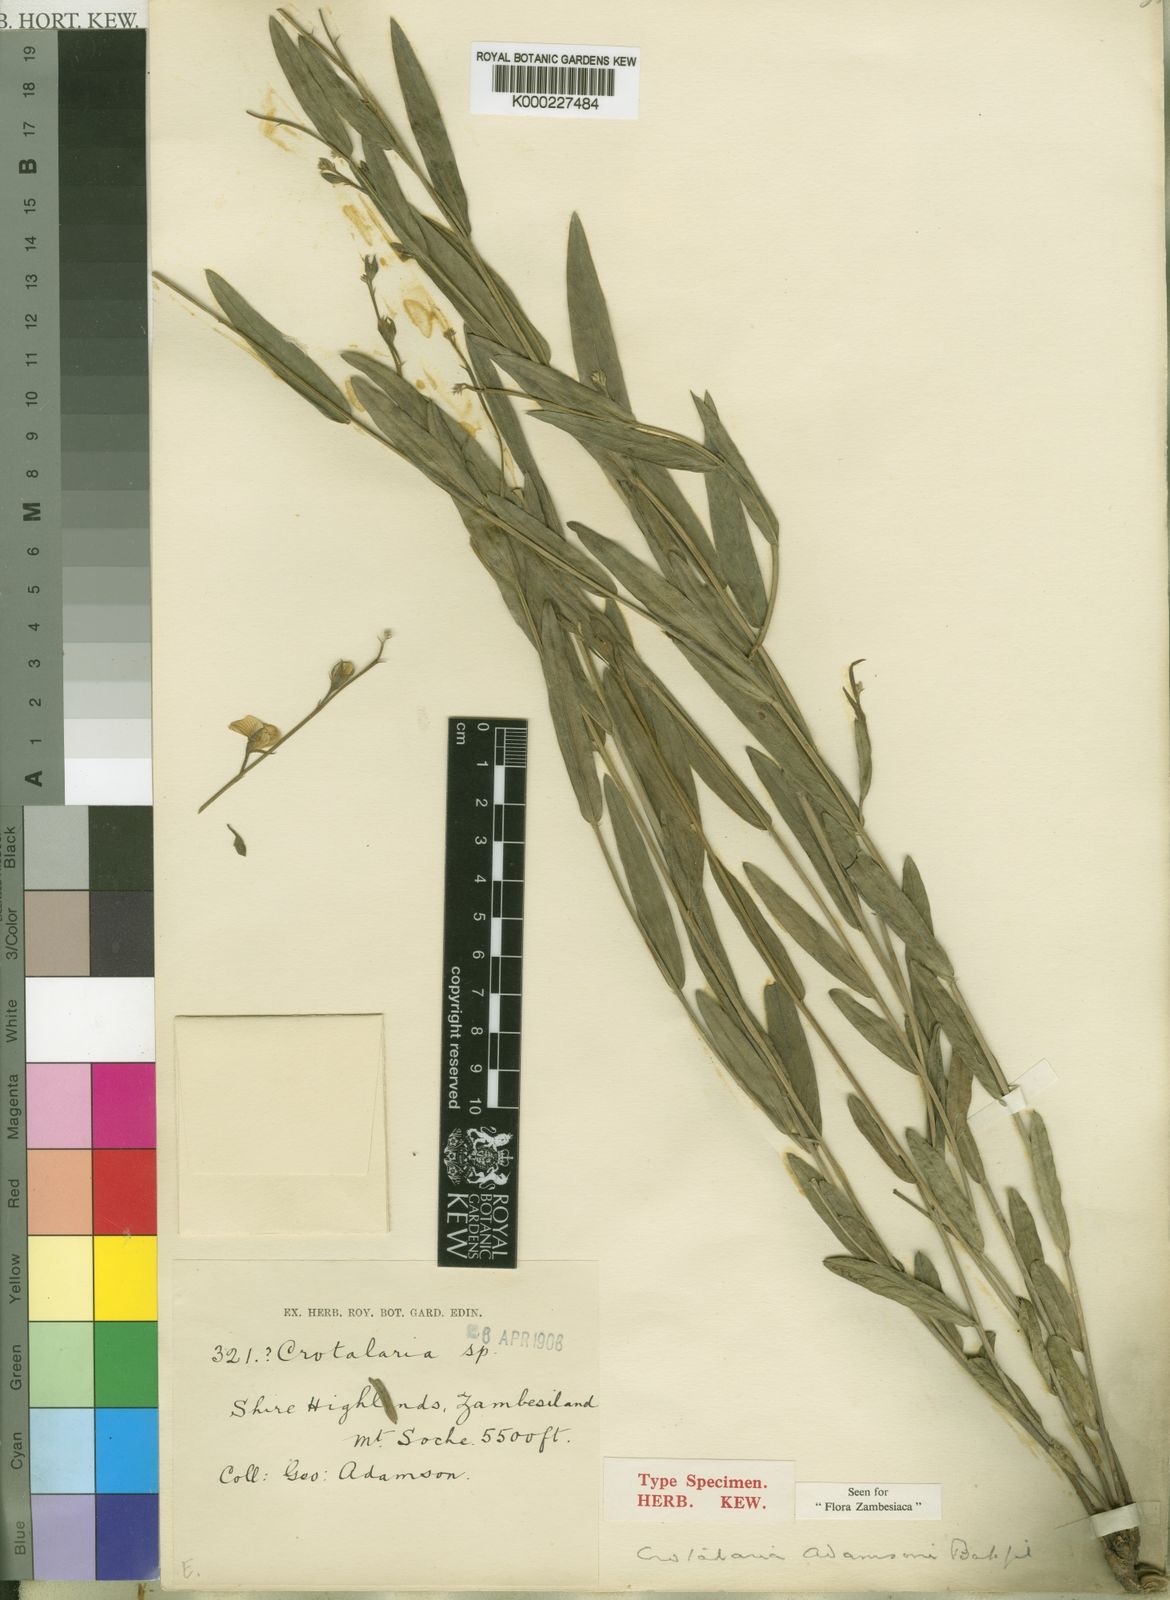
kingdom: Plantae
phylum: Tracheophyta
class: Magnoliopsida
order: Fabales
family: Fabaceae
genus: Crotalaria
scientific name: Crotalaria adamsonii
